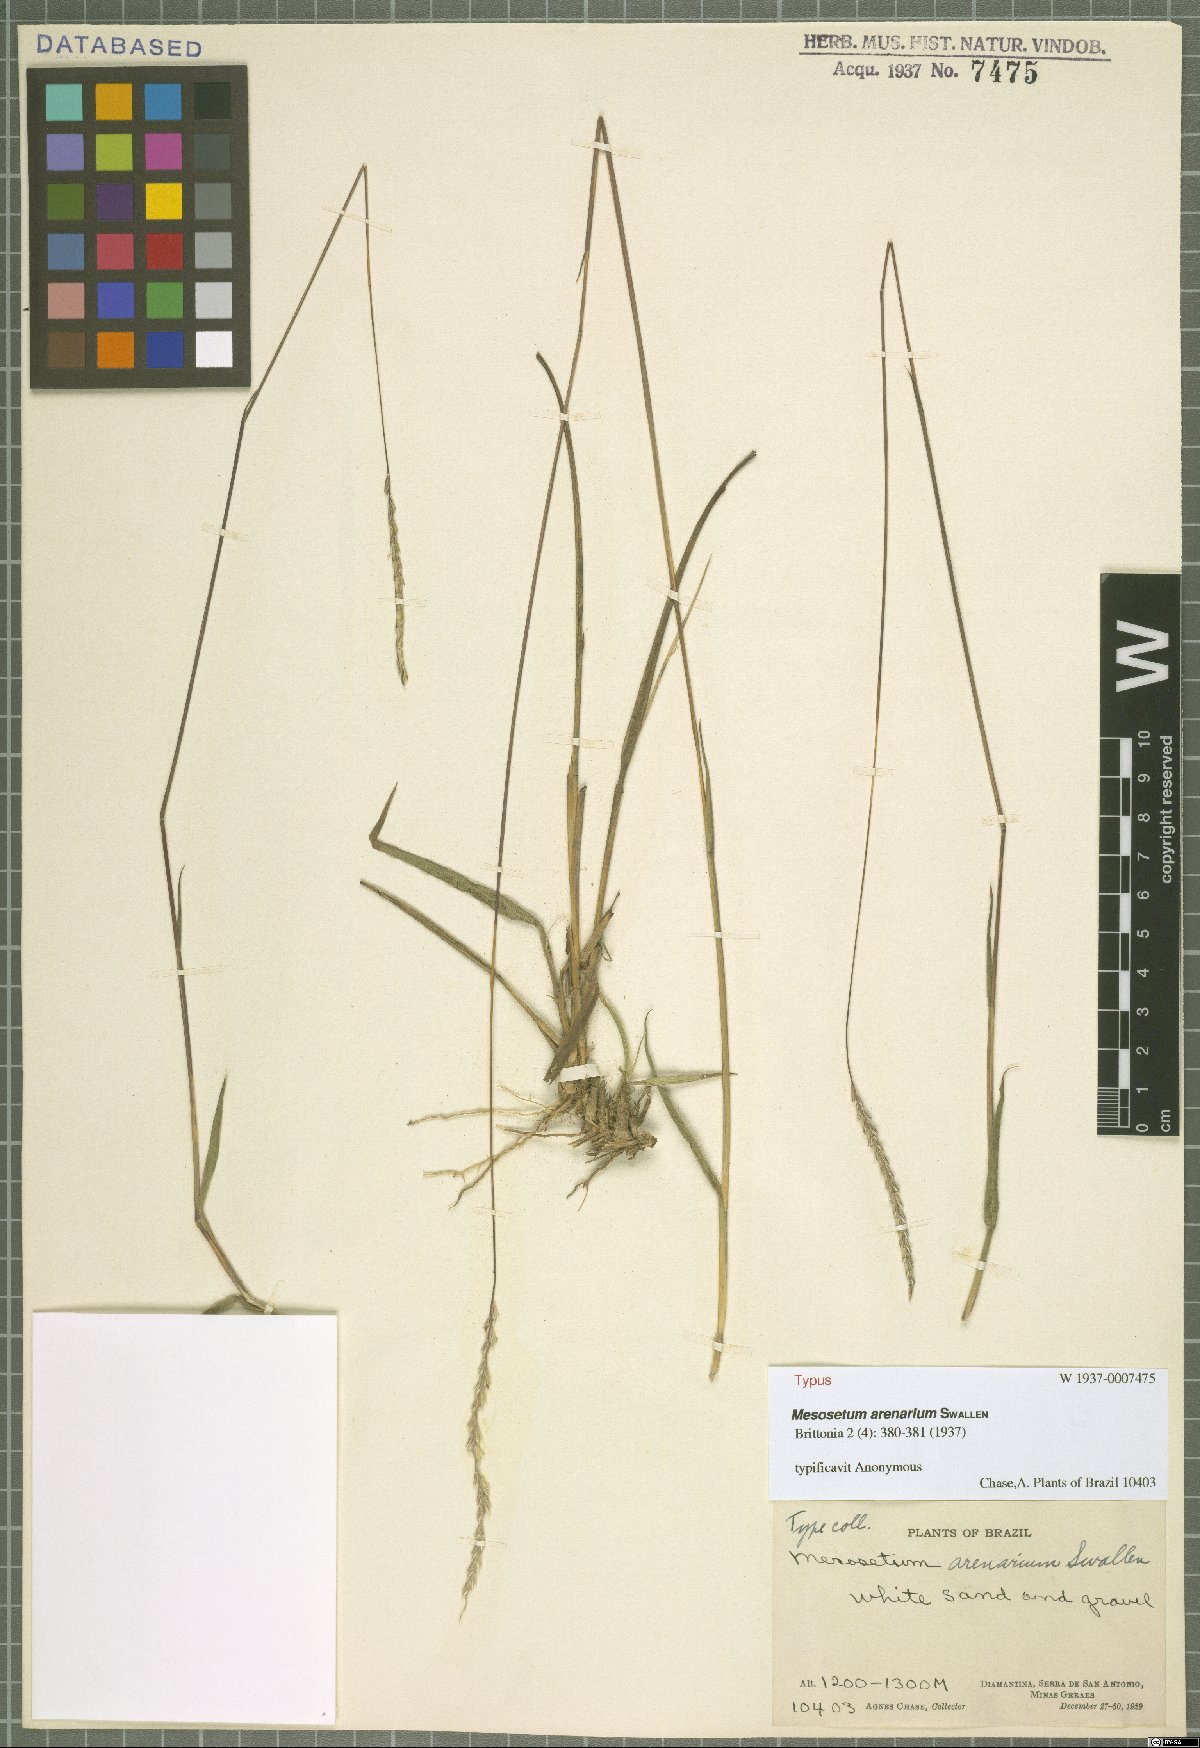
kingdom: Plantae
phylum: Tracheophyta
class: Liliopsida
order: Poales
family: Poaceae
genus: Mesosetum
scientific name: Mesosetum arenarium
